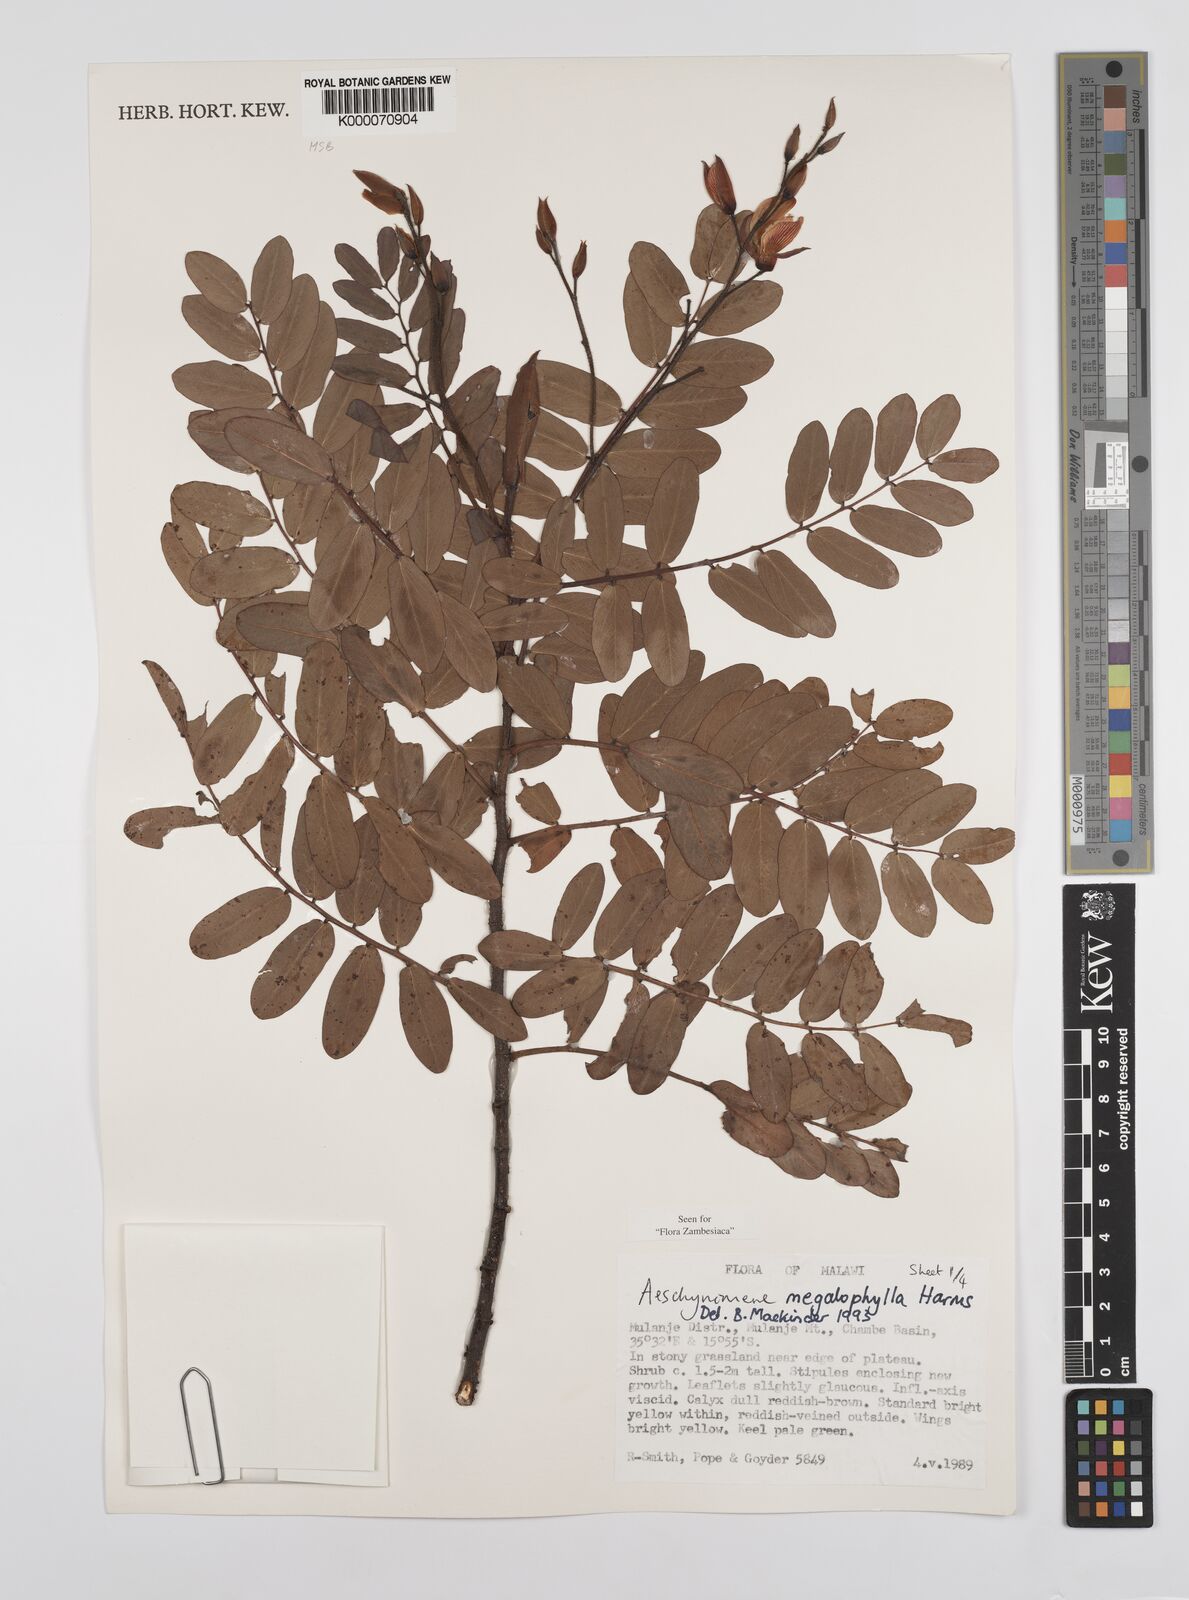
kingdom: Plantae
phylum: Tracheophyta
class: Magnoliopsida
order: Fabales
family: Fabaceae
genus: Aeschynomene
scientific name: Aeschynomene megalophylla
